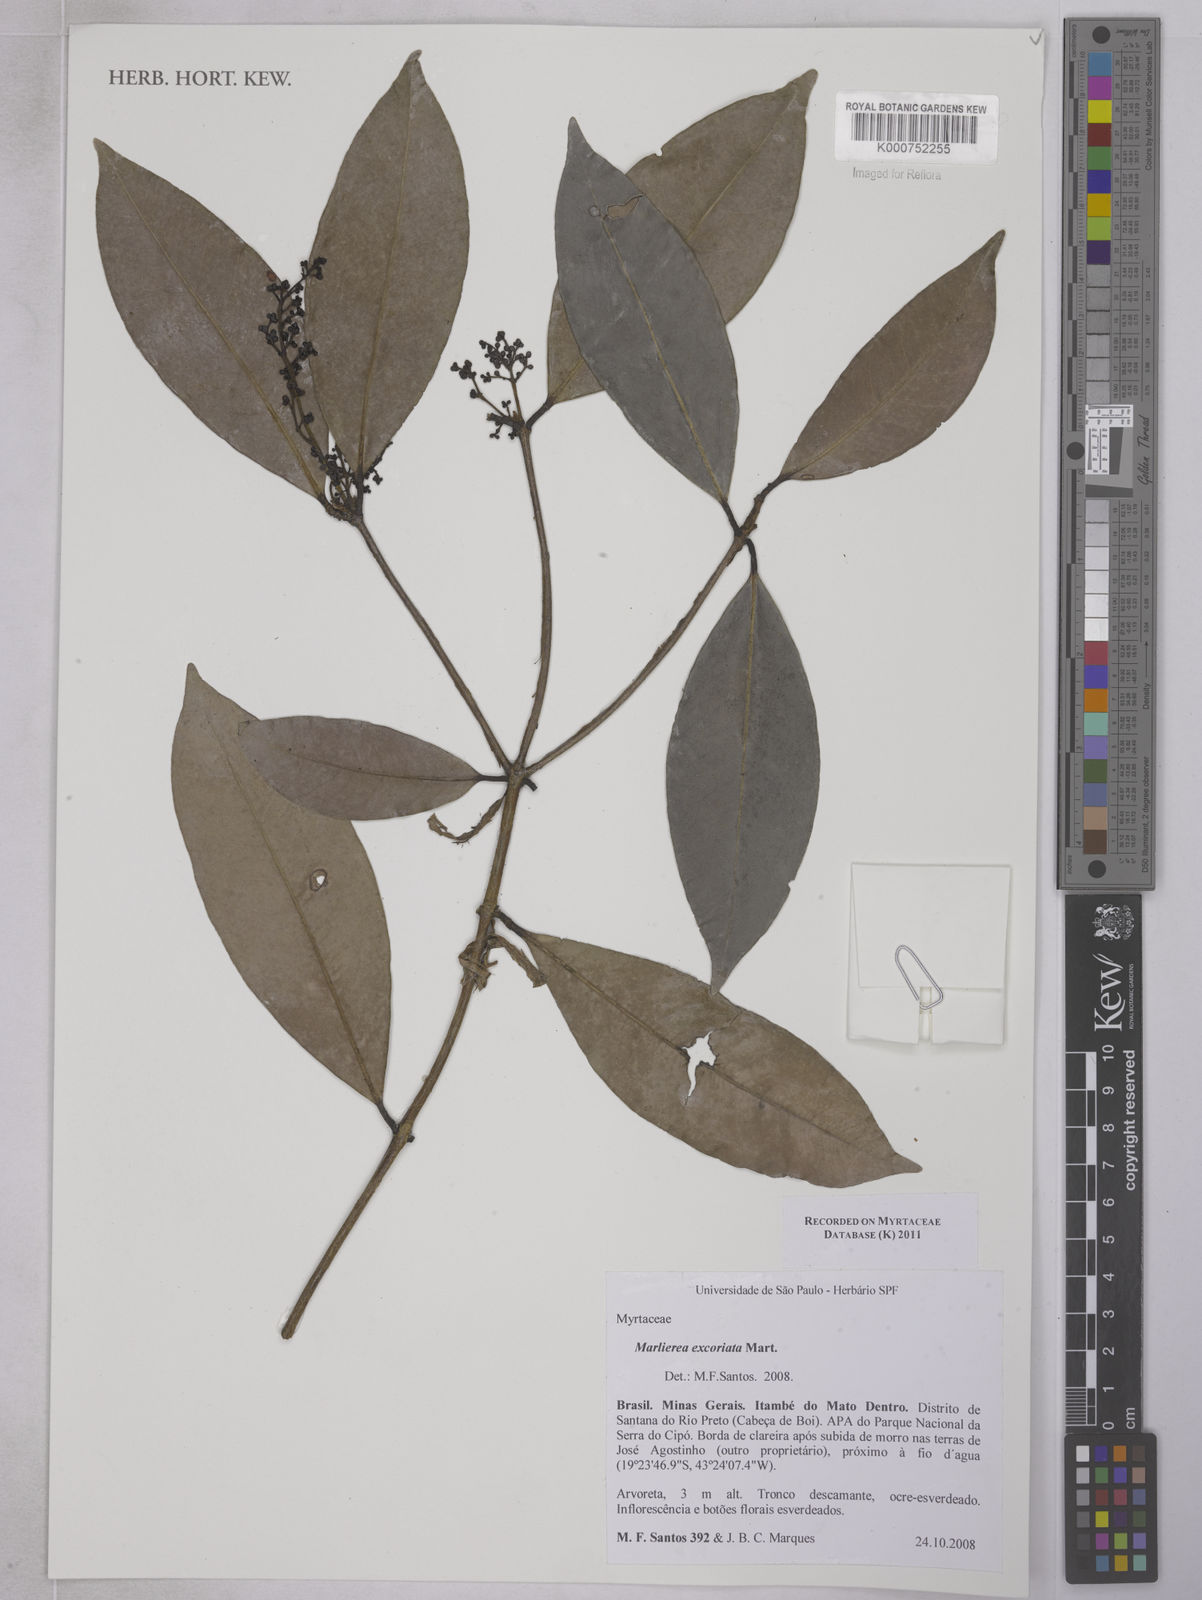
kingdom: Plantae
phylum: Tracheophyta
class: Magnoliopsida
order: Myrtales
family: Myrtaceae
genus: Myrcia
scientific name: Myrcia excoriata
